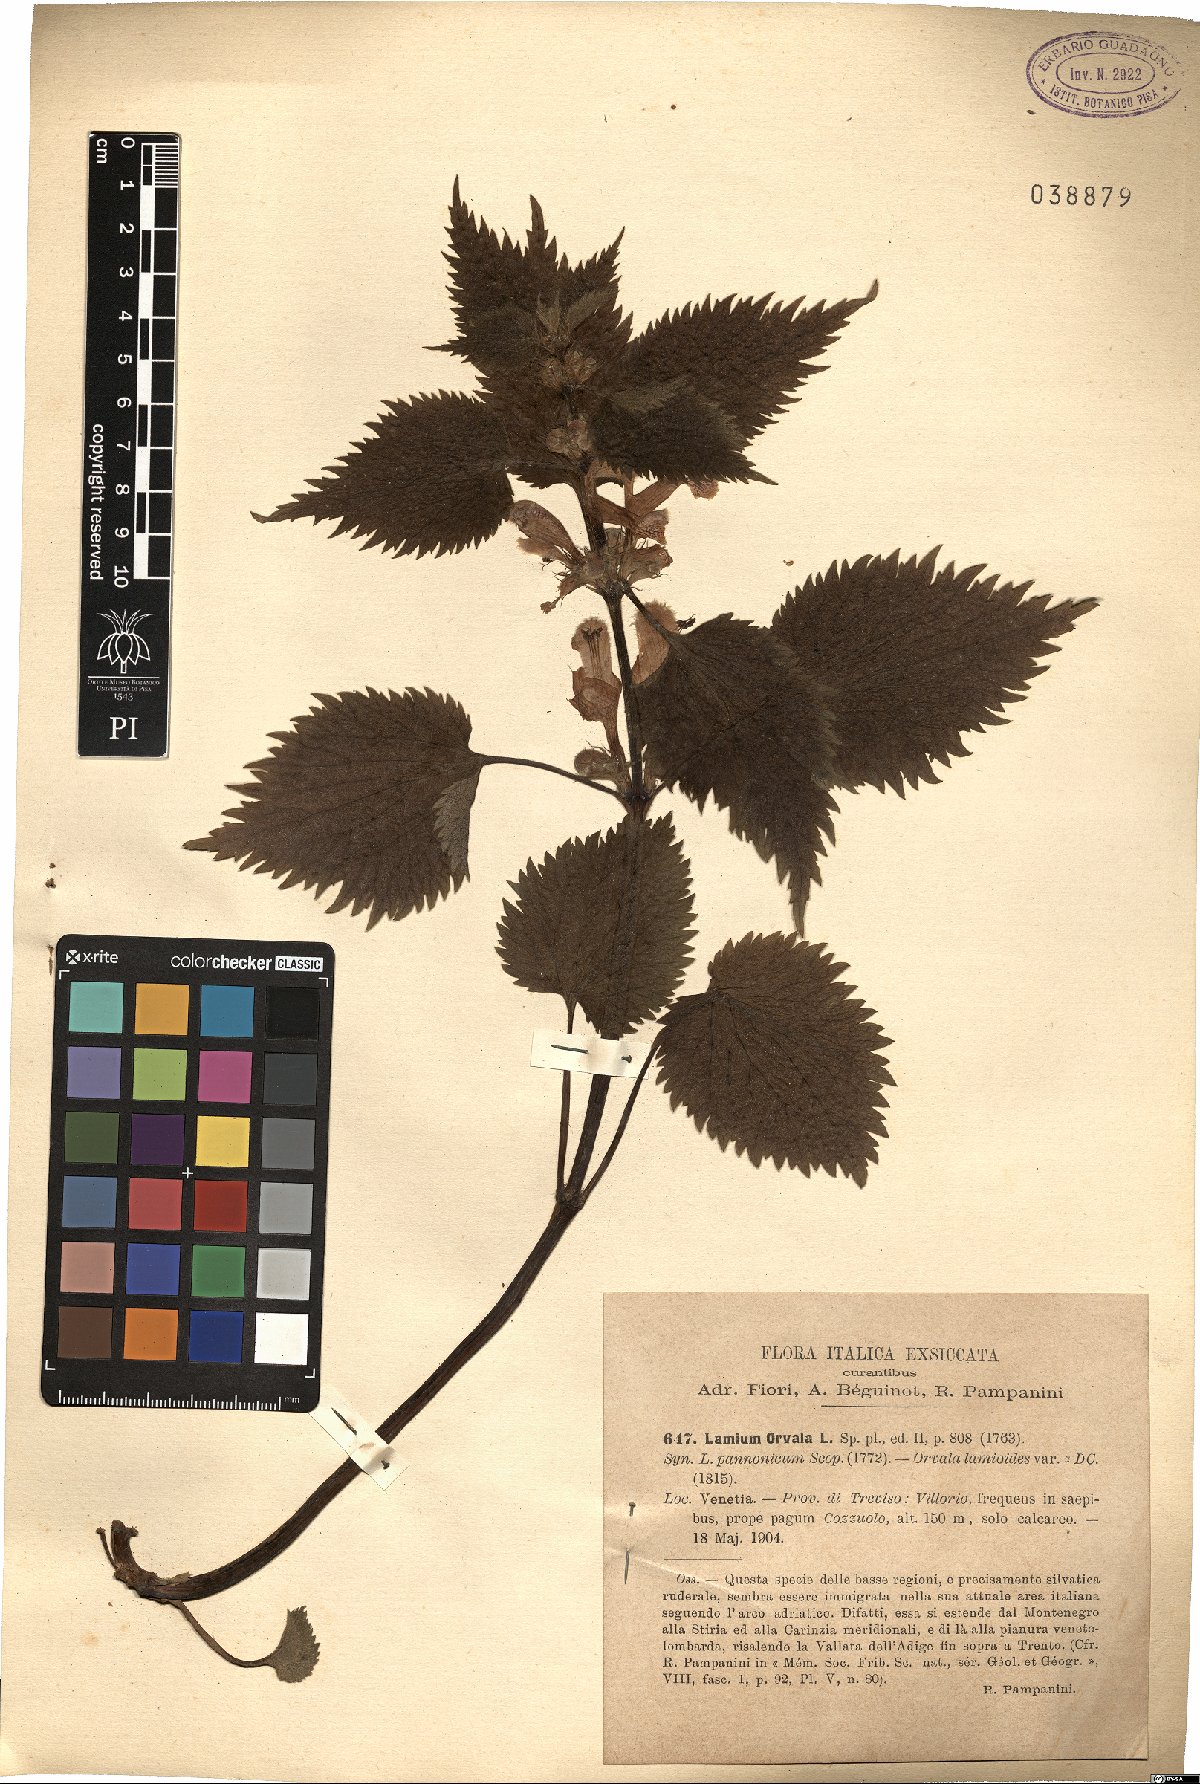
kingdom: Plantae
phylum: Tracheophyta
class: Magnoliopsida
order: Lamiales
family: Lamiaceae
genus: Lamium
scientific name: Lamium orvala
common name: Balm-leaved archangel
